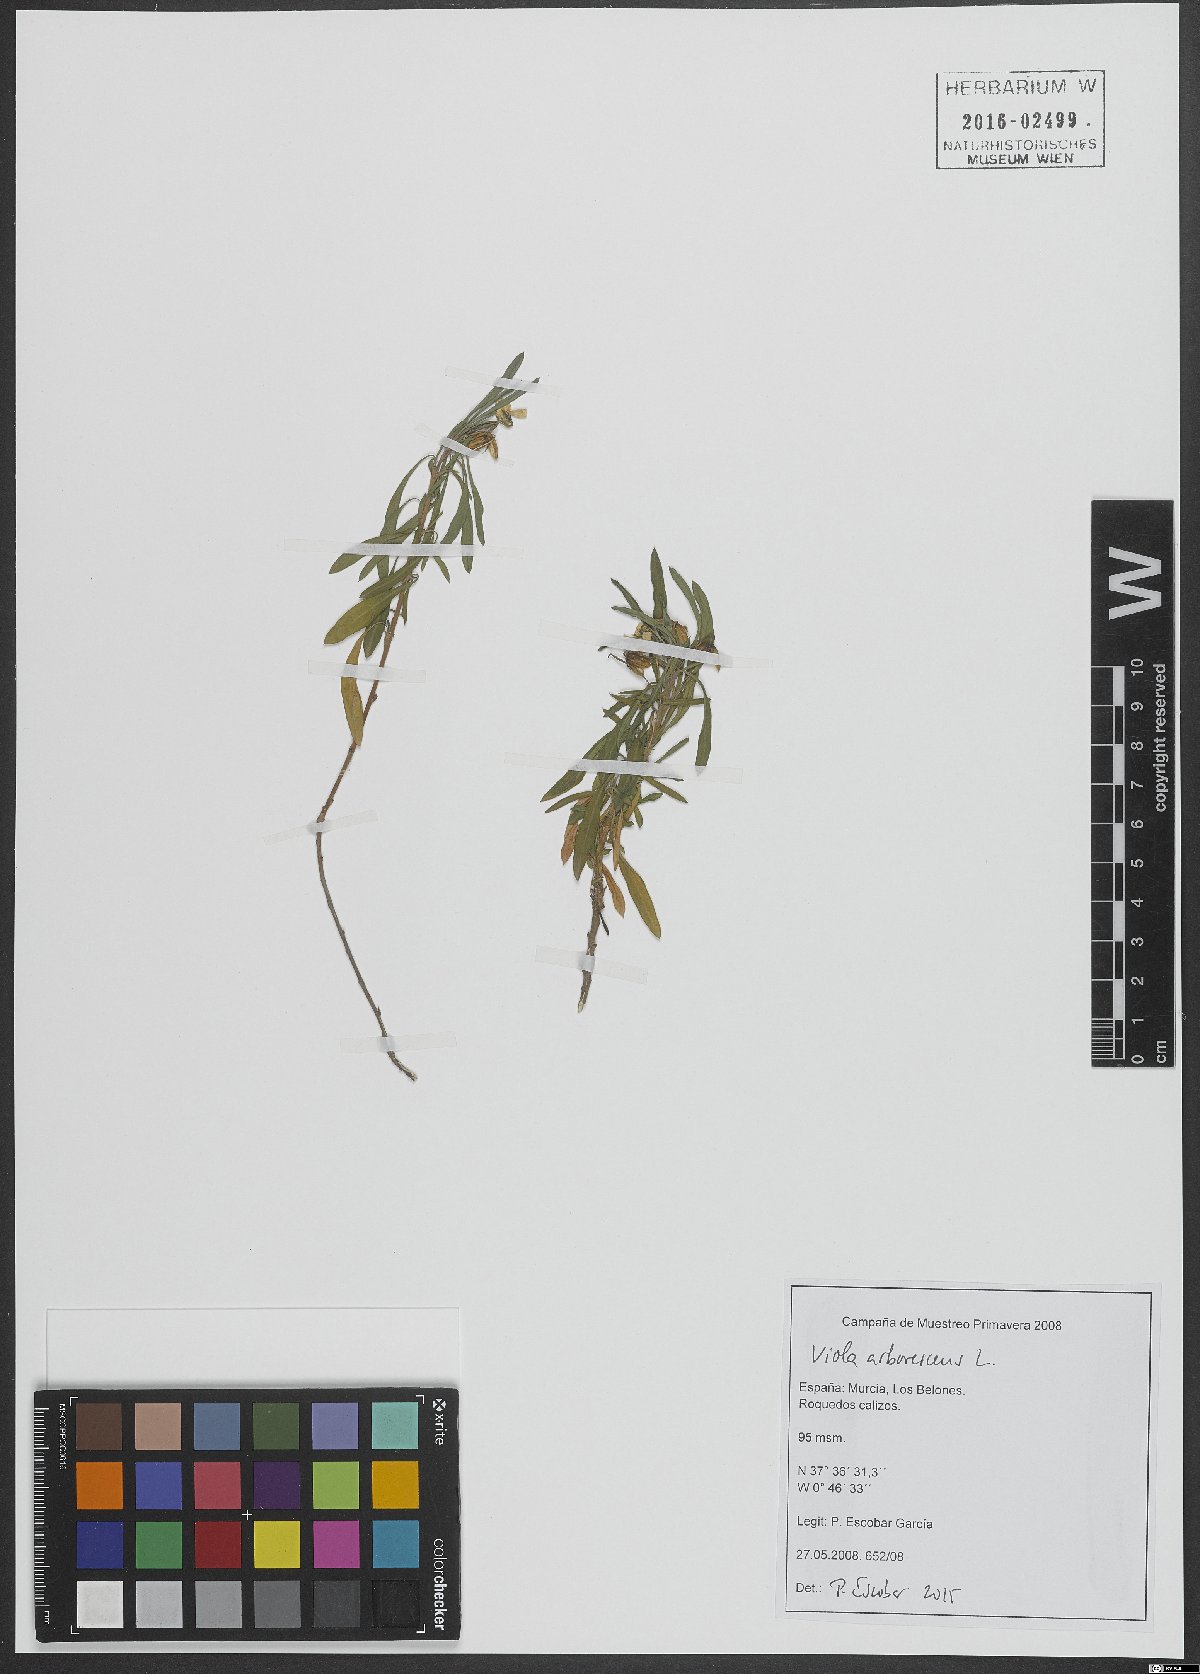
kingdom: Plantae
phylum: Tracheophyta
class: Magnoliopsida
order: Malpighiales
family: Violaceae
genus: Viola
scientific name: Viola arborescens
